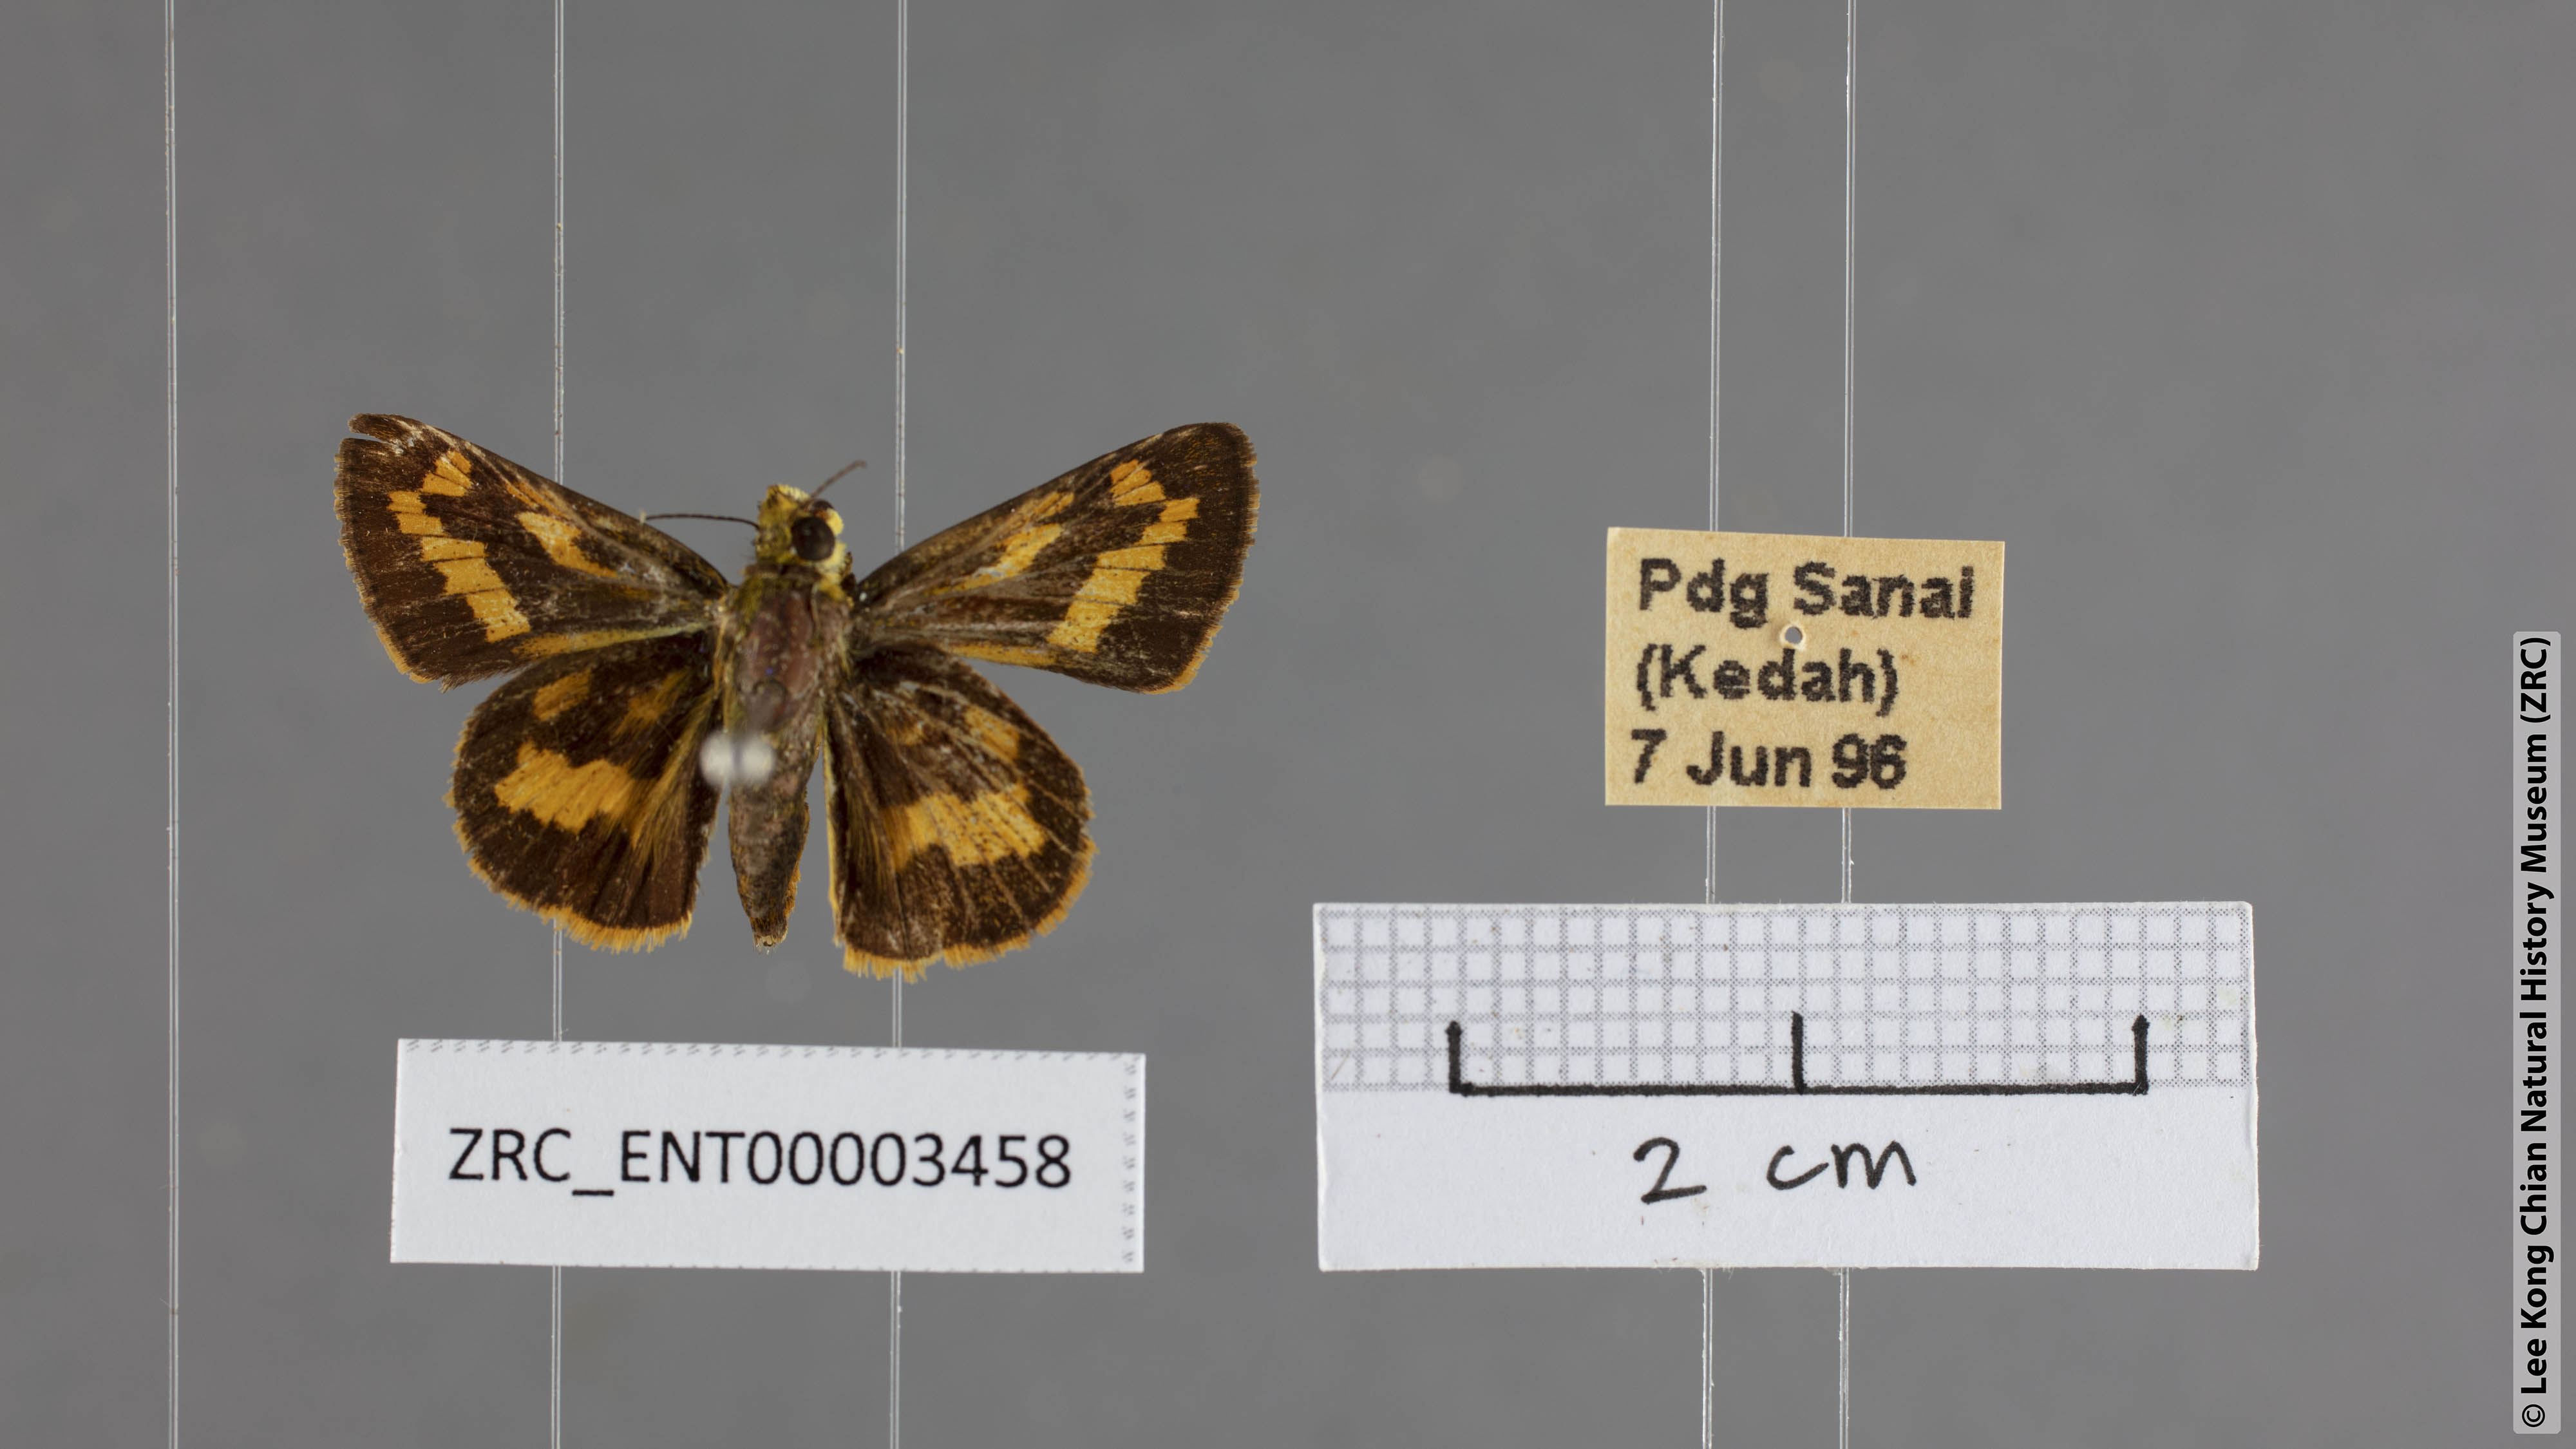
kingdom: Animalia
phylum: Arthropoda
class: Insecta
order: Lepidoptera
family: Hesperiidae
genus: Potanthus
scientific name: Potanthus confucius
